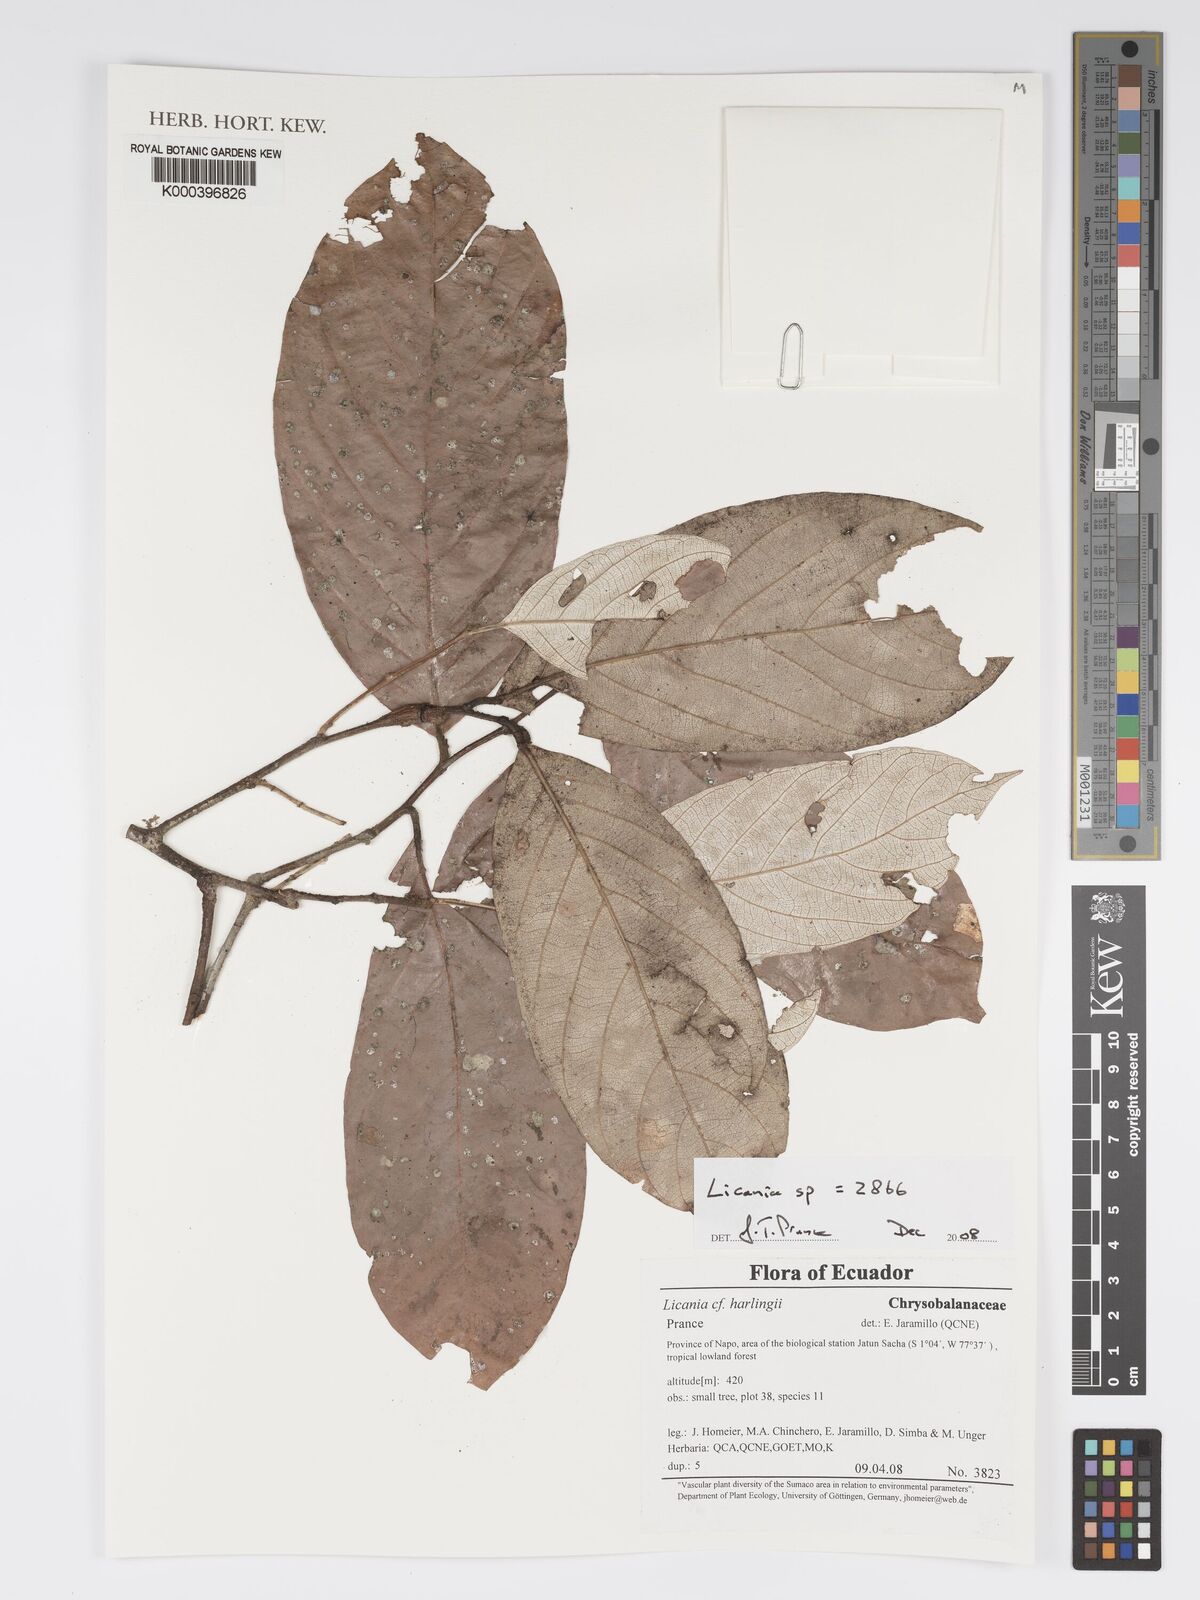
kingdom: Plantae
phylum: Tracheophyta
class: Magnoliopsida
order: Malpighiales
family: Chrysobalanaceae
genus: Licania
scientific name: Licania
